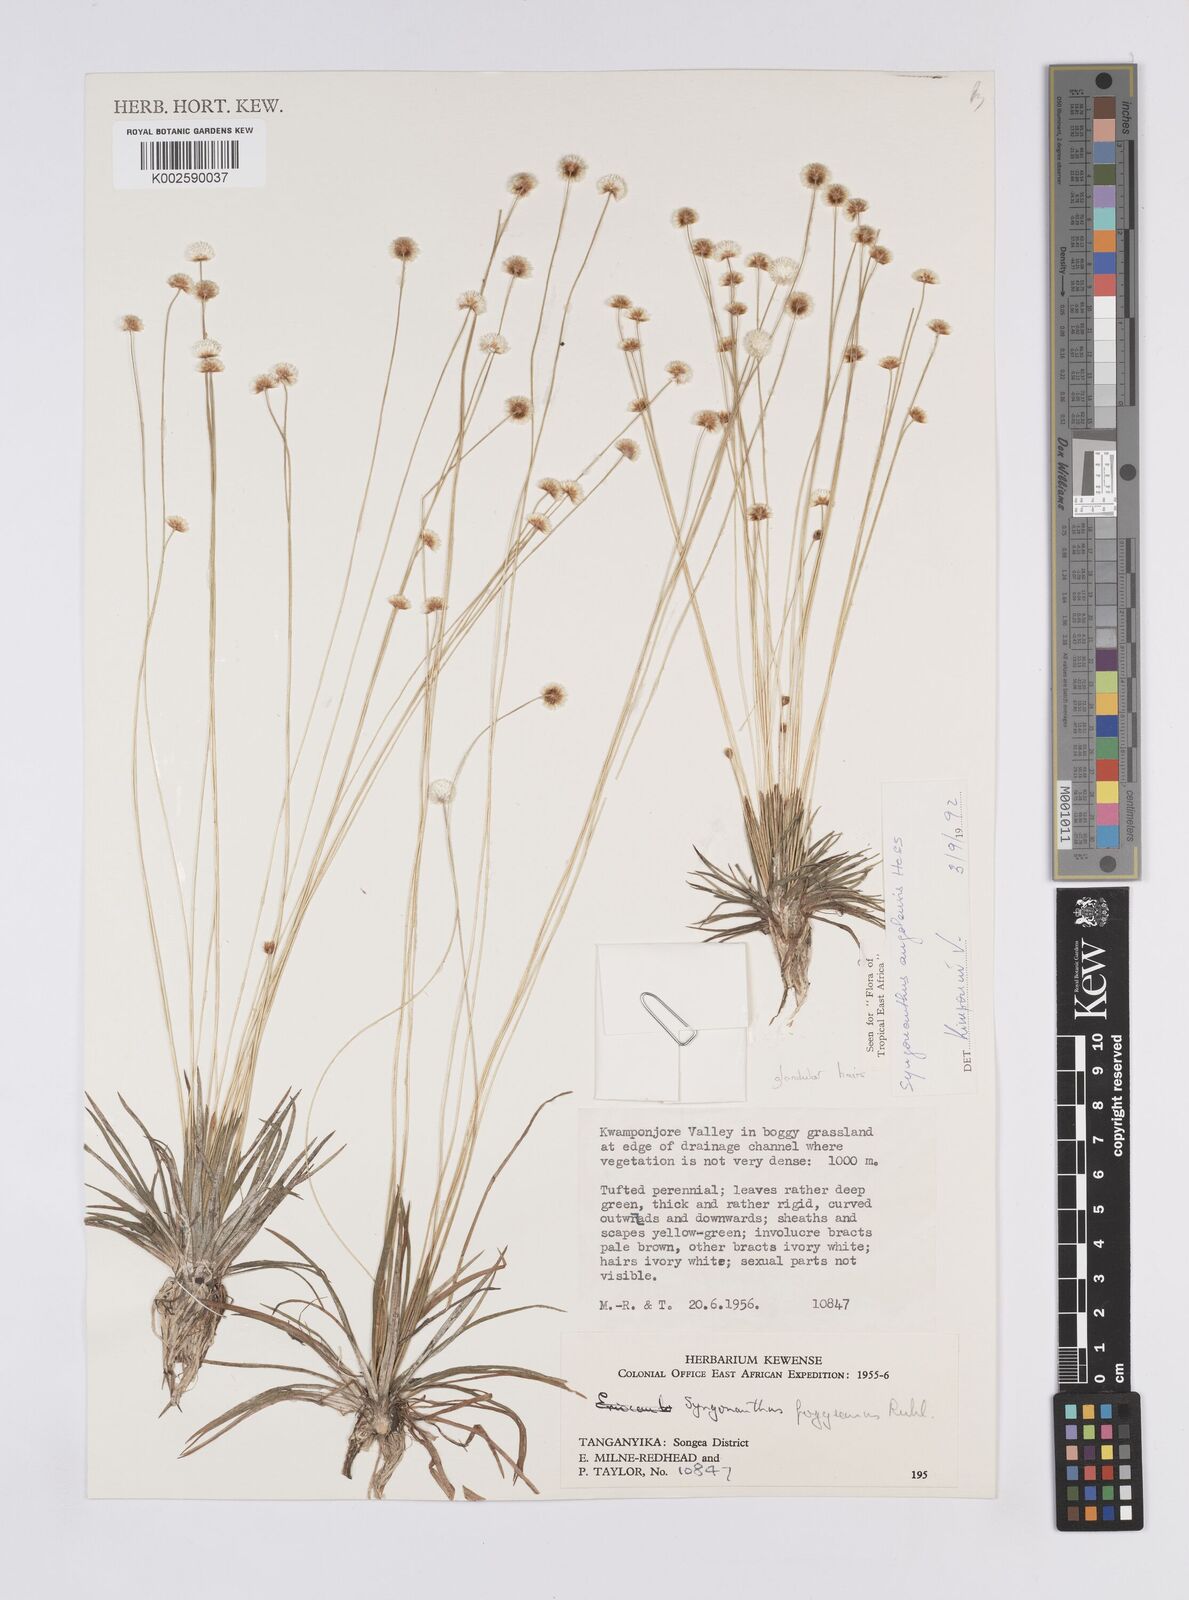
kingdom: Plantae
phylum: Tracheophyta
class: Liliopsida
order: Poales
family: Eriocaulaceae
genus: Syngonanthus
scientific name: Syngonanthus angolensis
